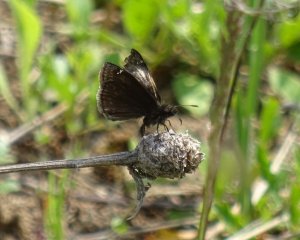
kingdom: Animalia
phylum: Arthropoda
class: Insecta
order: Lepidoptera
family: Hesperiidae
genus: Gesta
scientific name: Gesta
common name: Columbine Duskywing
